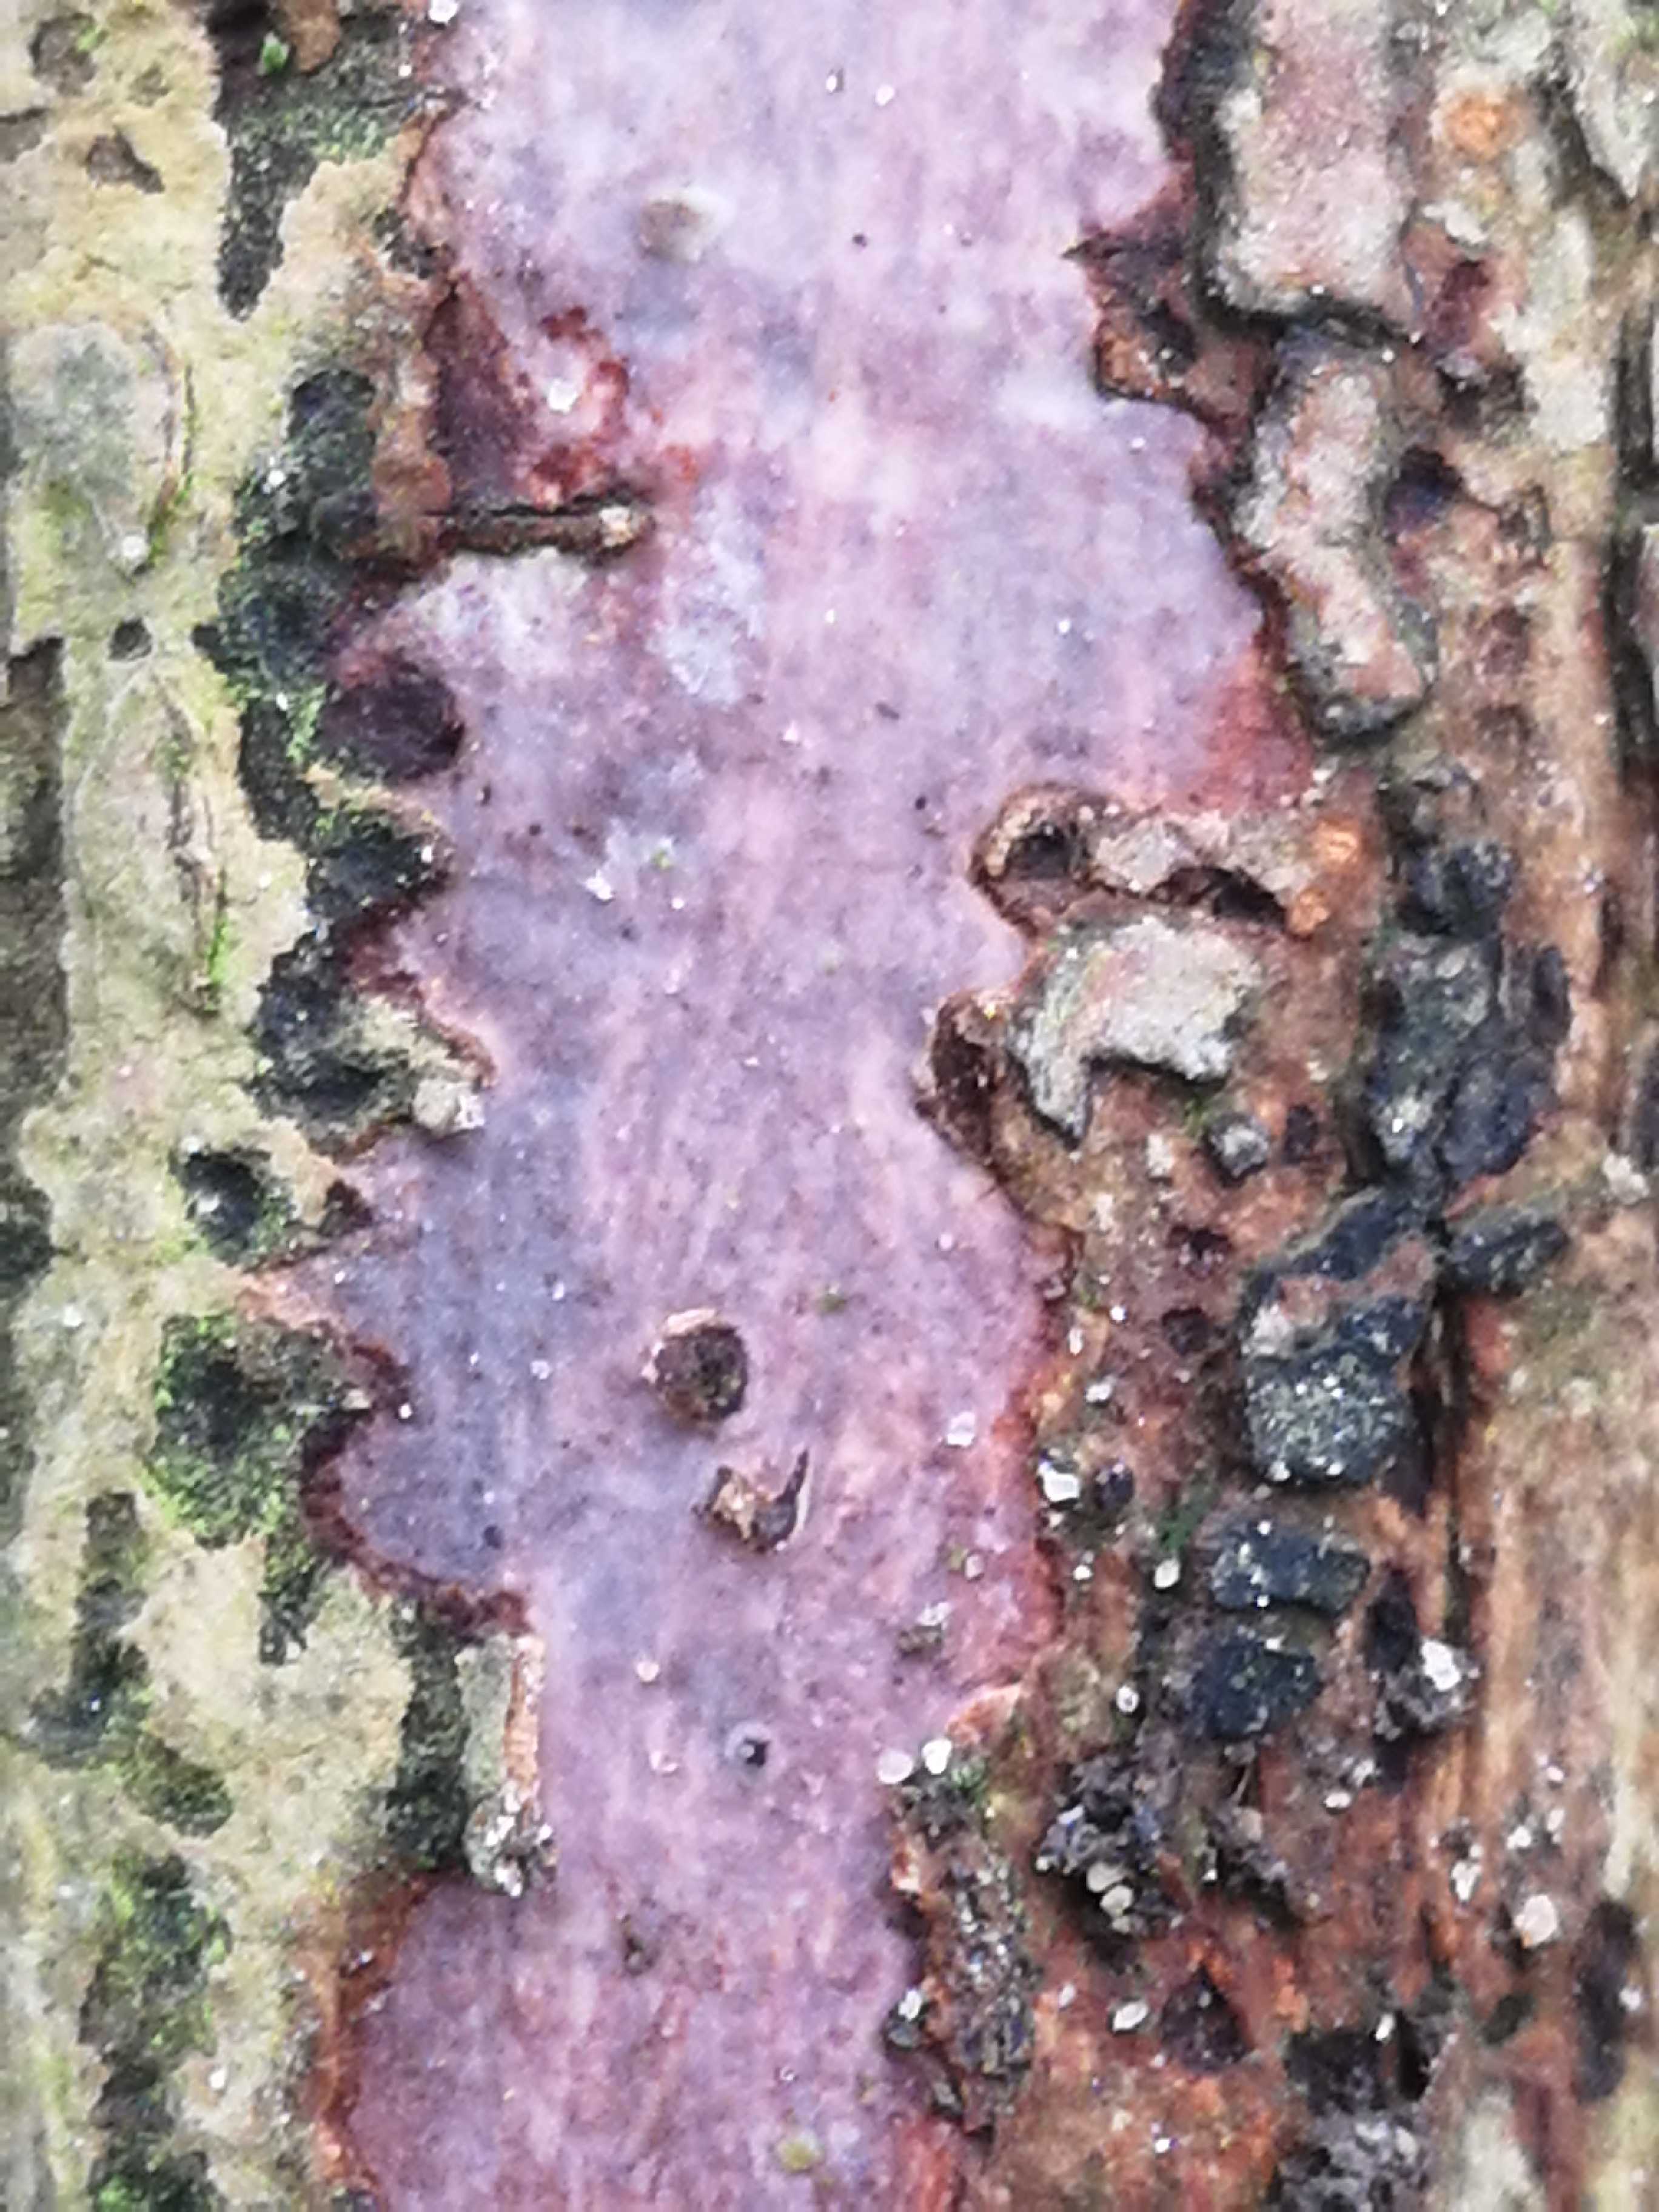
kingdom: Fungi
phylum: Basidiomycota
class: Agaricomycetes
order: Corticiales
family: Vuilleminiaceae
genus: Vuilleminia
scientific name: Vuilleminia coryli
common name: hassel-barksprænger
